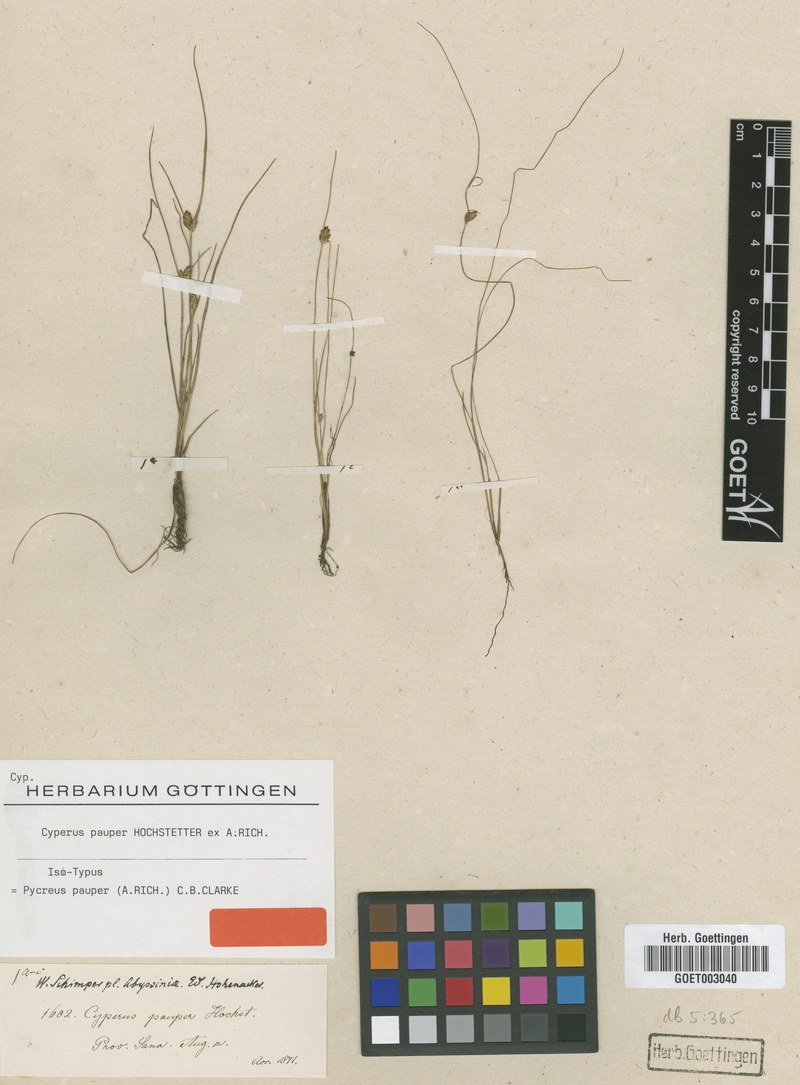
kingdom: Plantae
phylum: Tracheophyta
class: Liliopsida
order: Poales
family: Cyperaceae
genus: Cyperus
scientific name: Cyperus pauper
